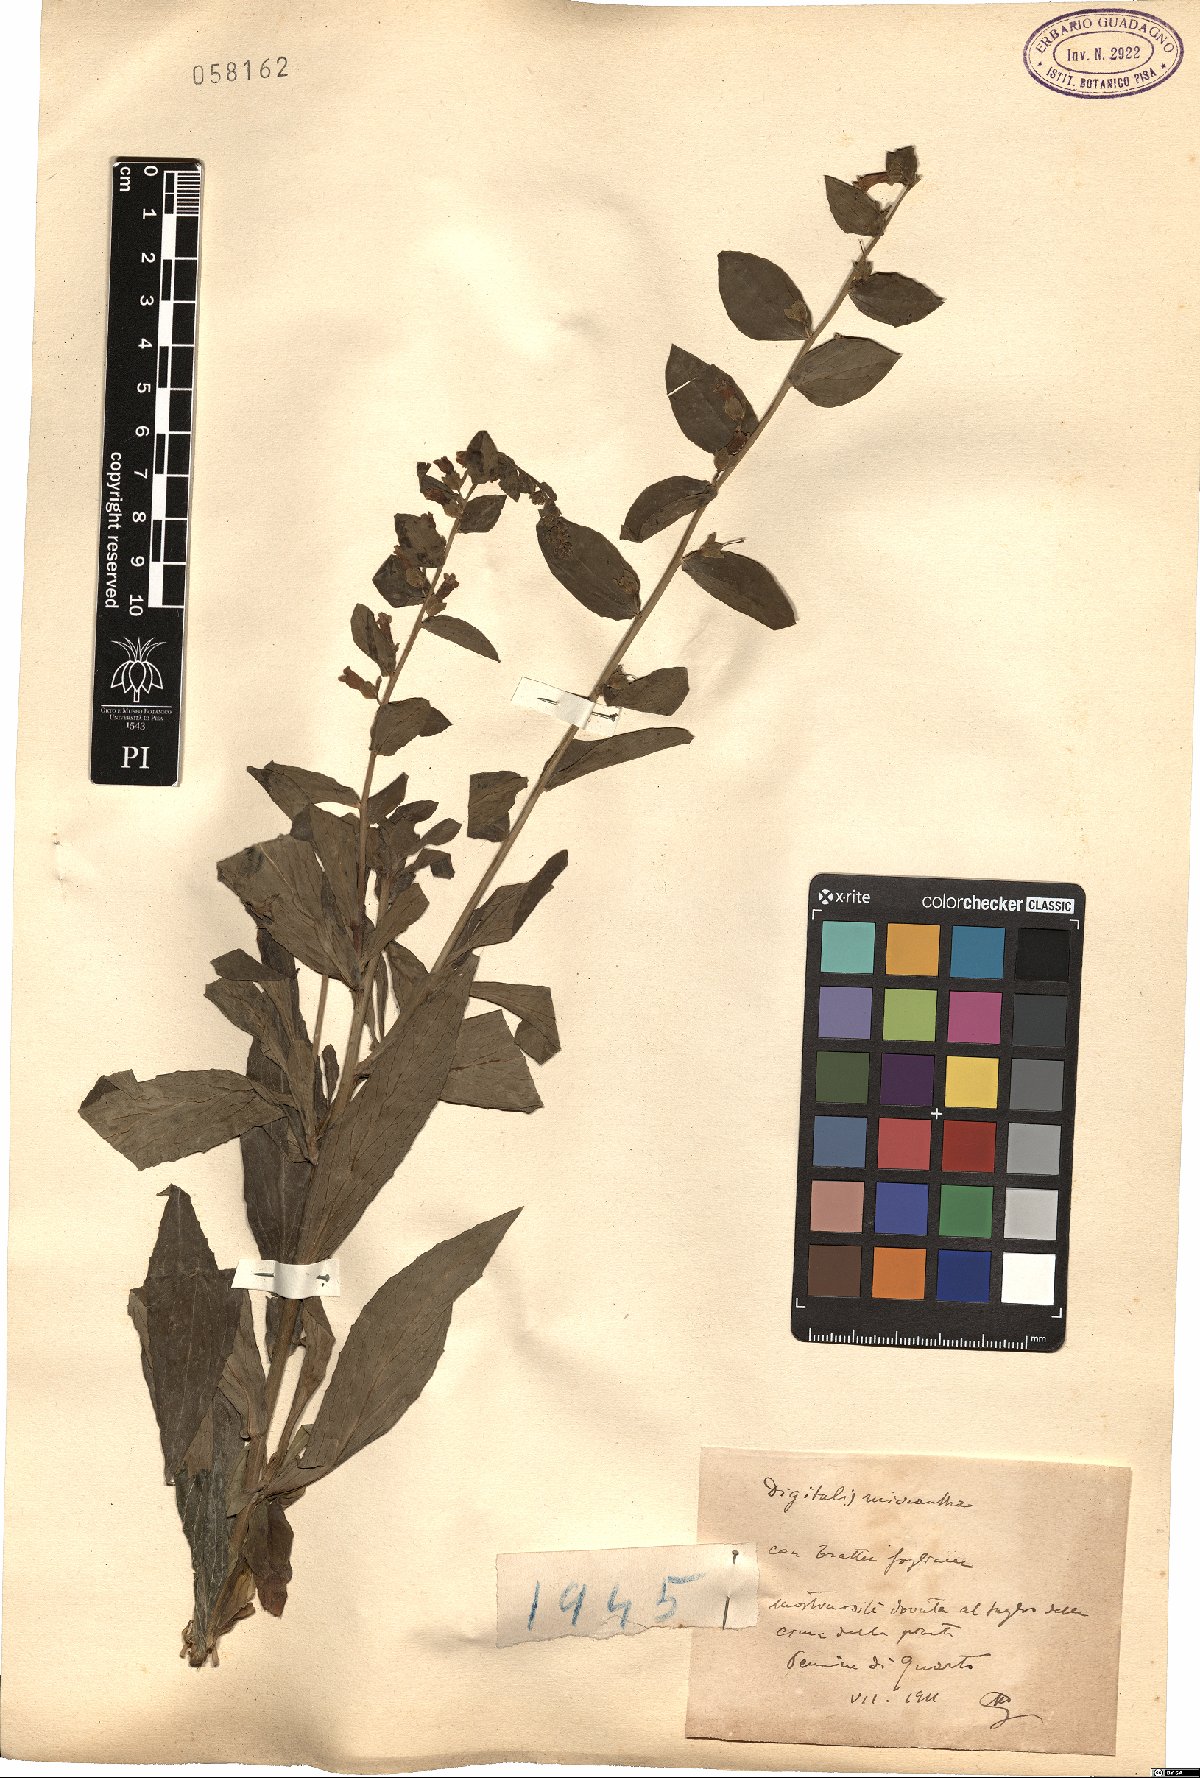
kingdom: Plantae
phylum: Tracheophyta
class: Magnoliopsida
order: Lamiales
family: Plantaginaceae
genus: Digitalis
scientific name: Digitalis lutea
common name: Straw foxglove
